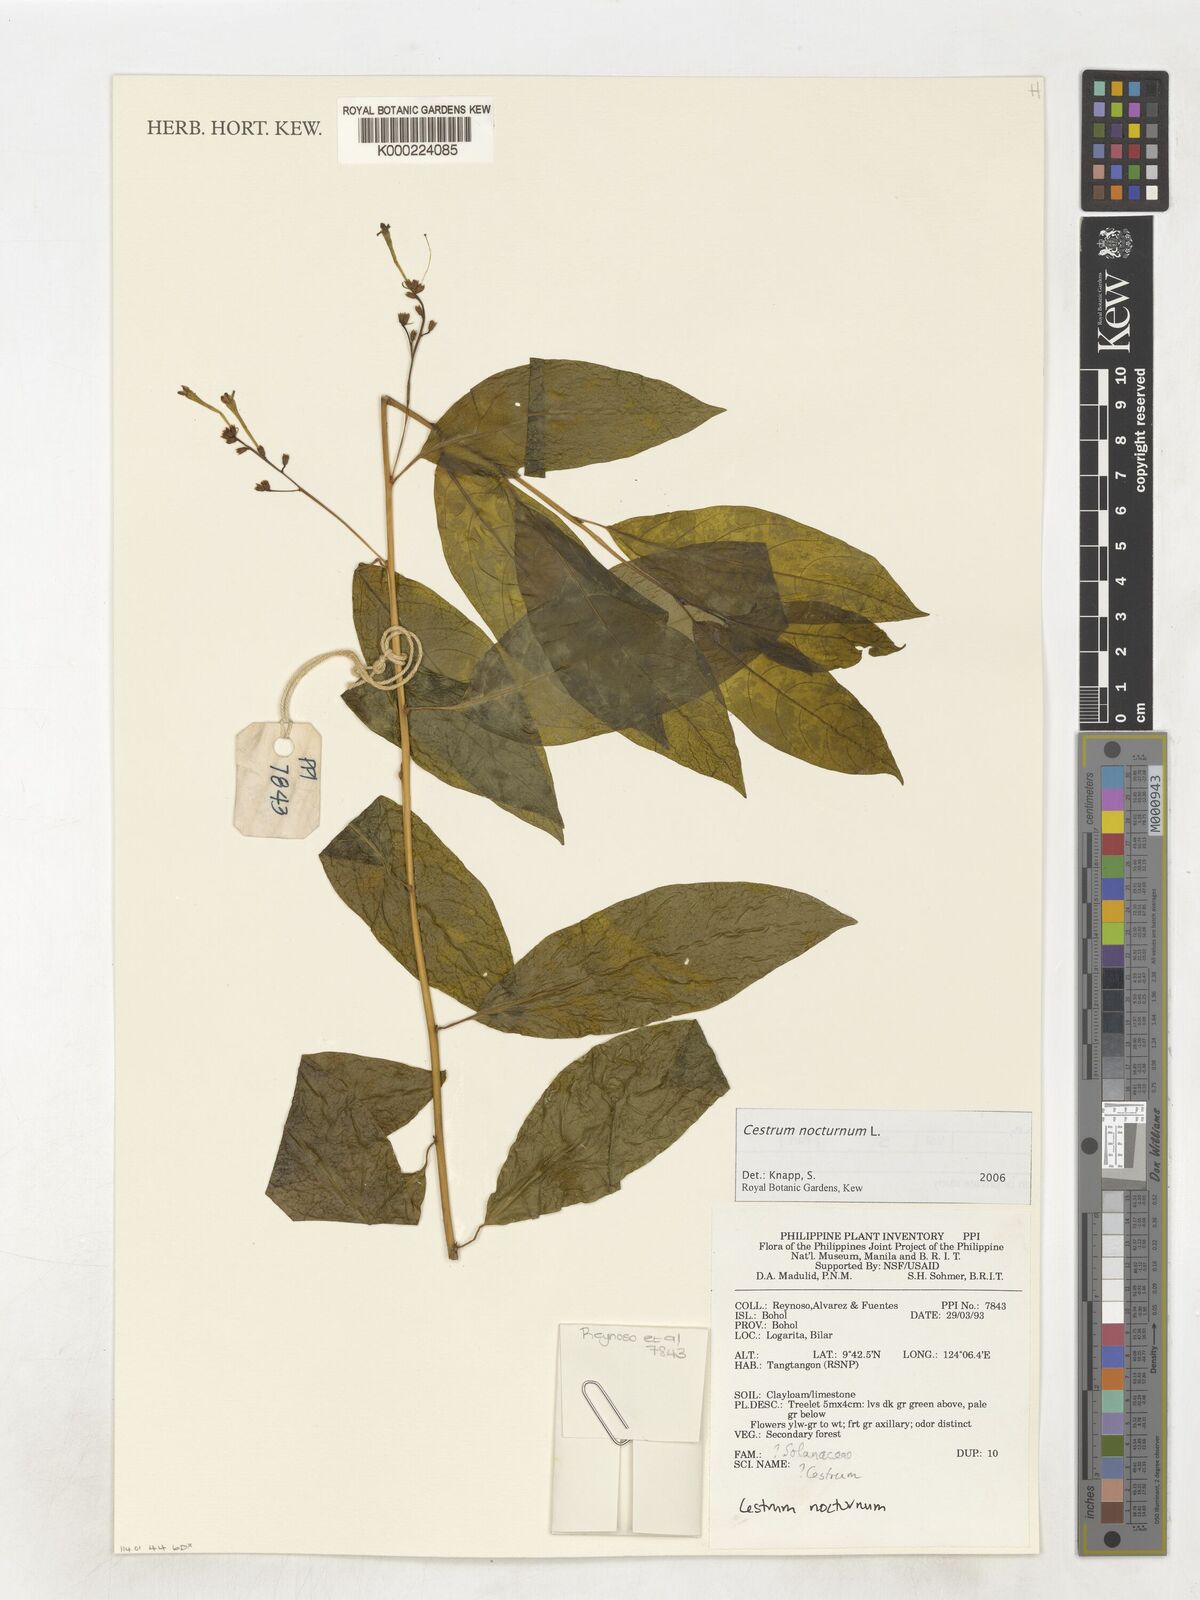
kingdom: Plantae
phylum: Tracheophyta
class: Magnoliopsida
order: Solanales
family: Solanaceae
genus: Cestrum
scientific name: Cestrum nocturnum
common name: Night jessamine
